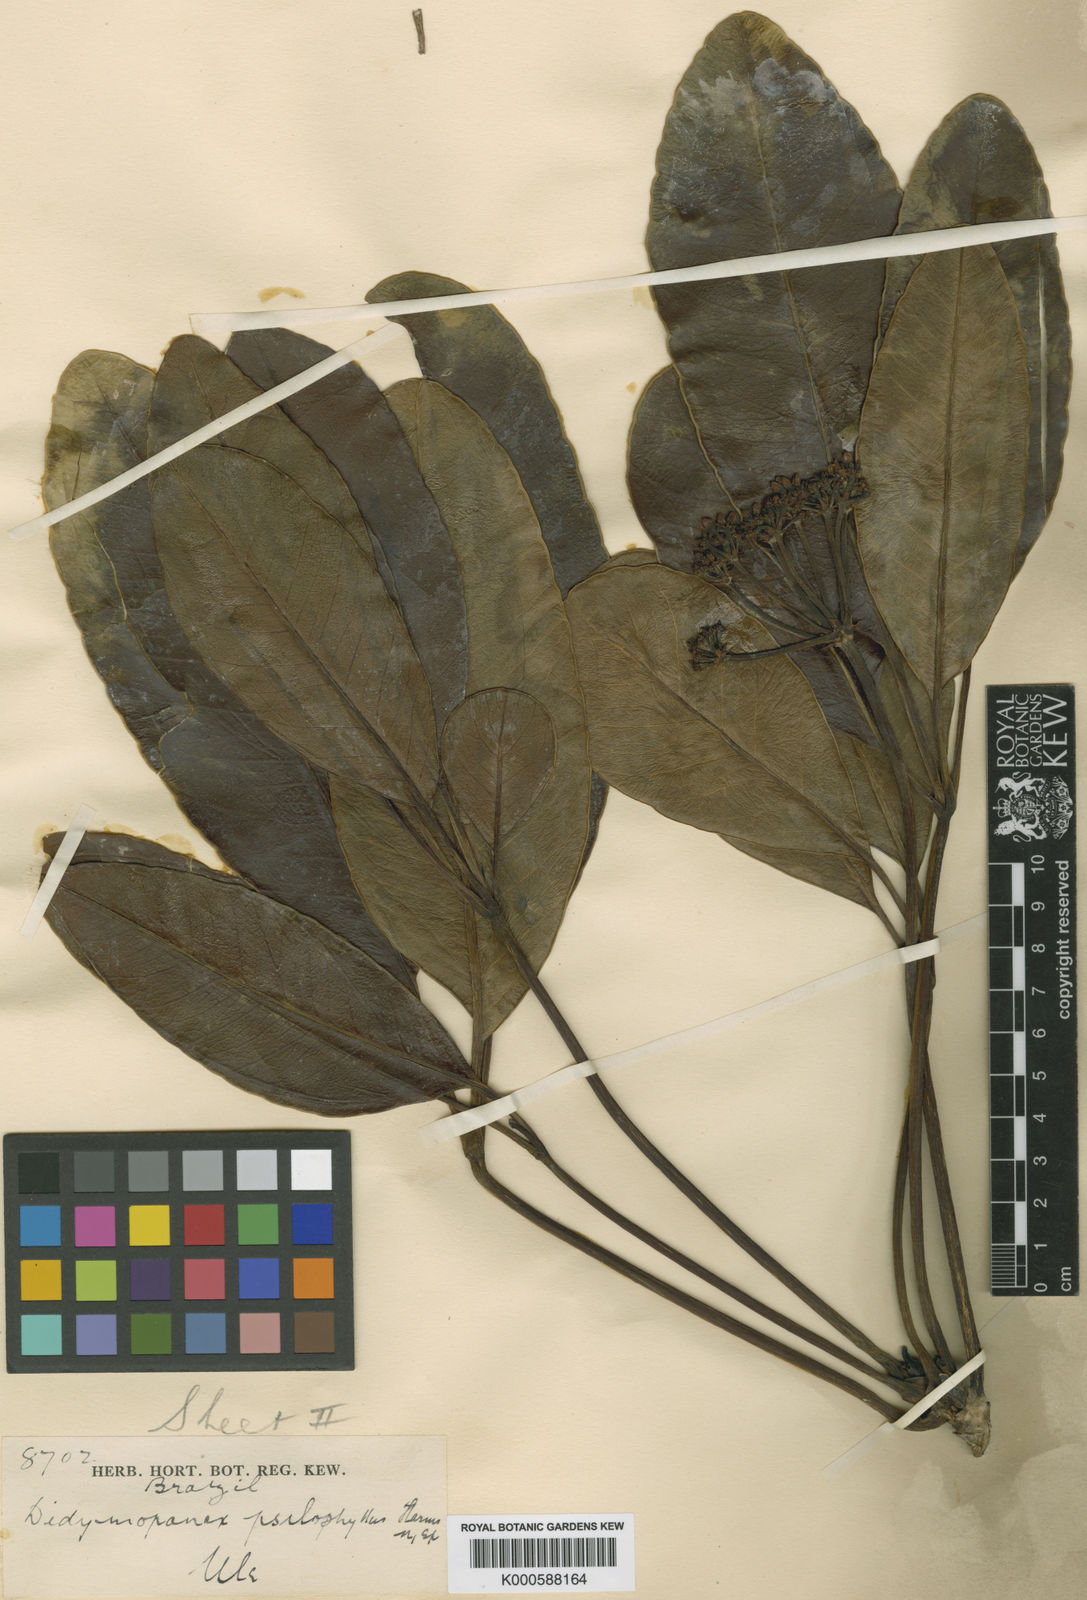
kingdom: Plantae
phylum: Tracheophyta
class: Magnoliopsida
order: Apiales
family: Araliaceae
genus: Crepinella
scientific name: Crepinella
